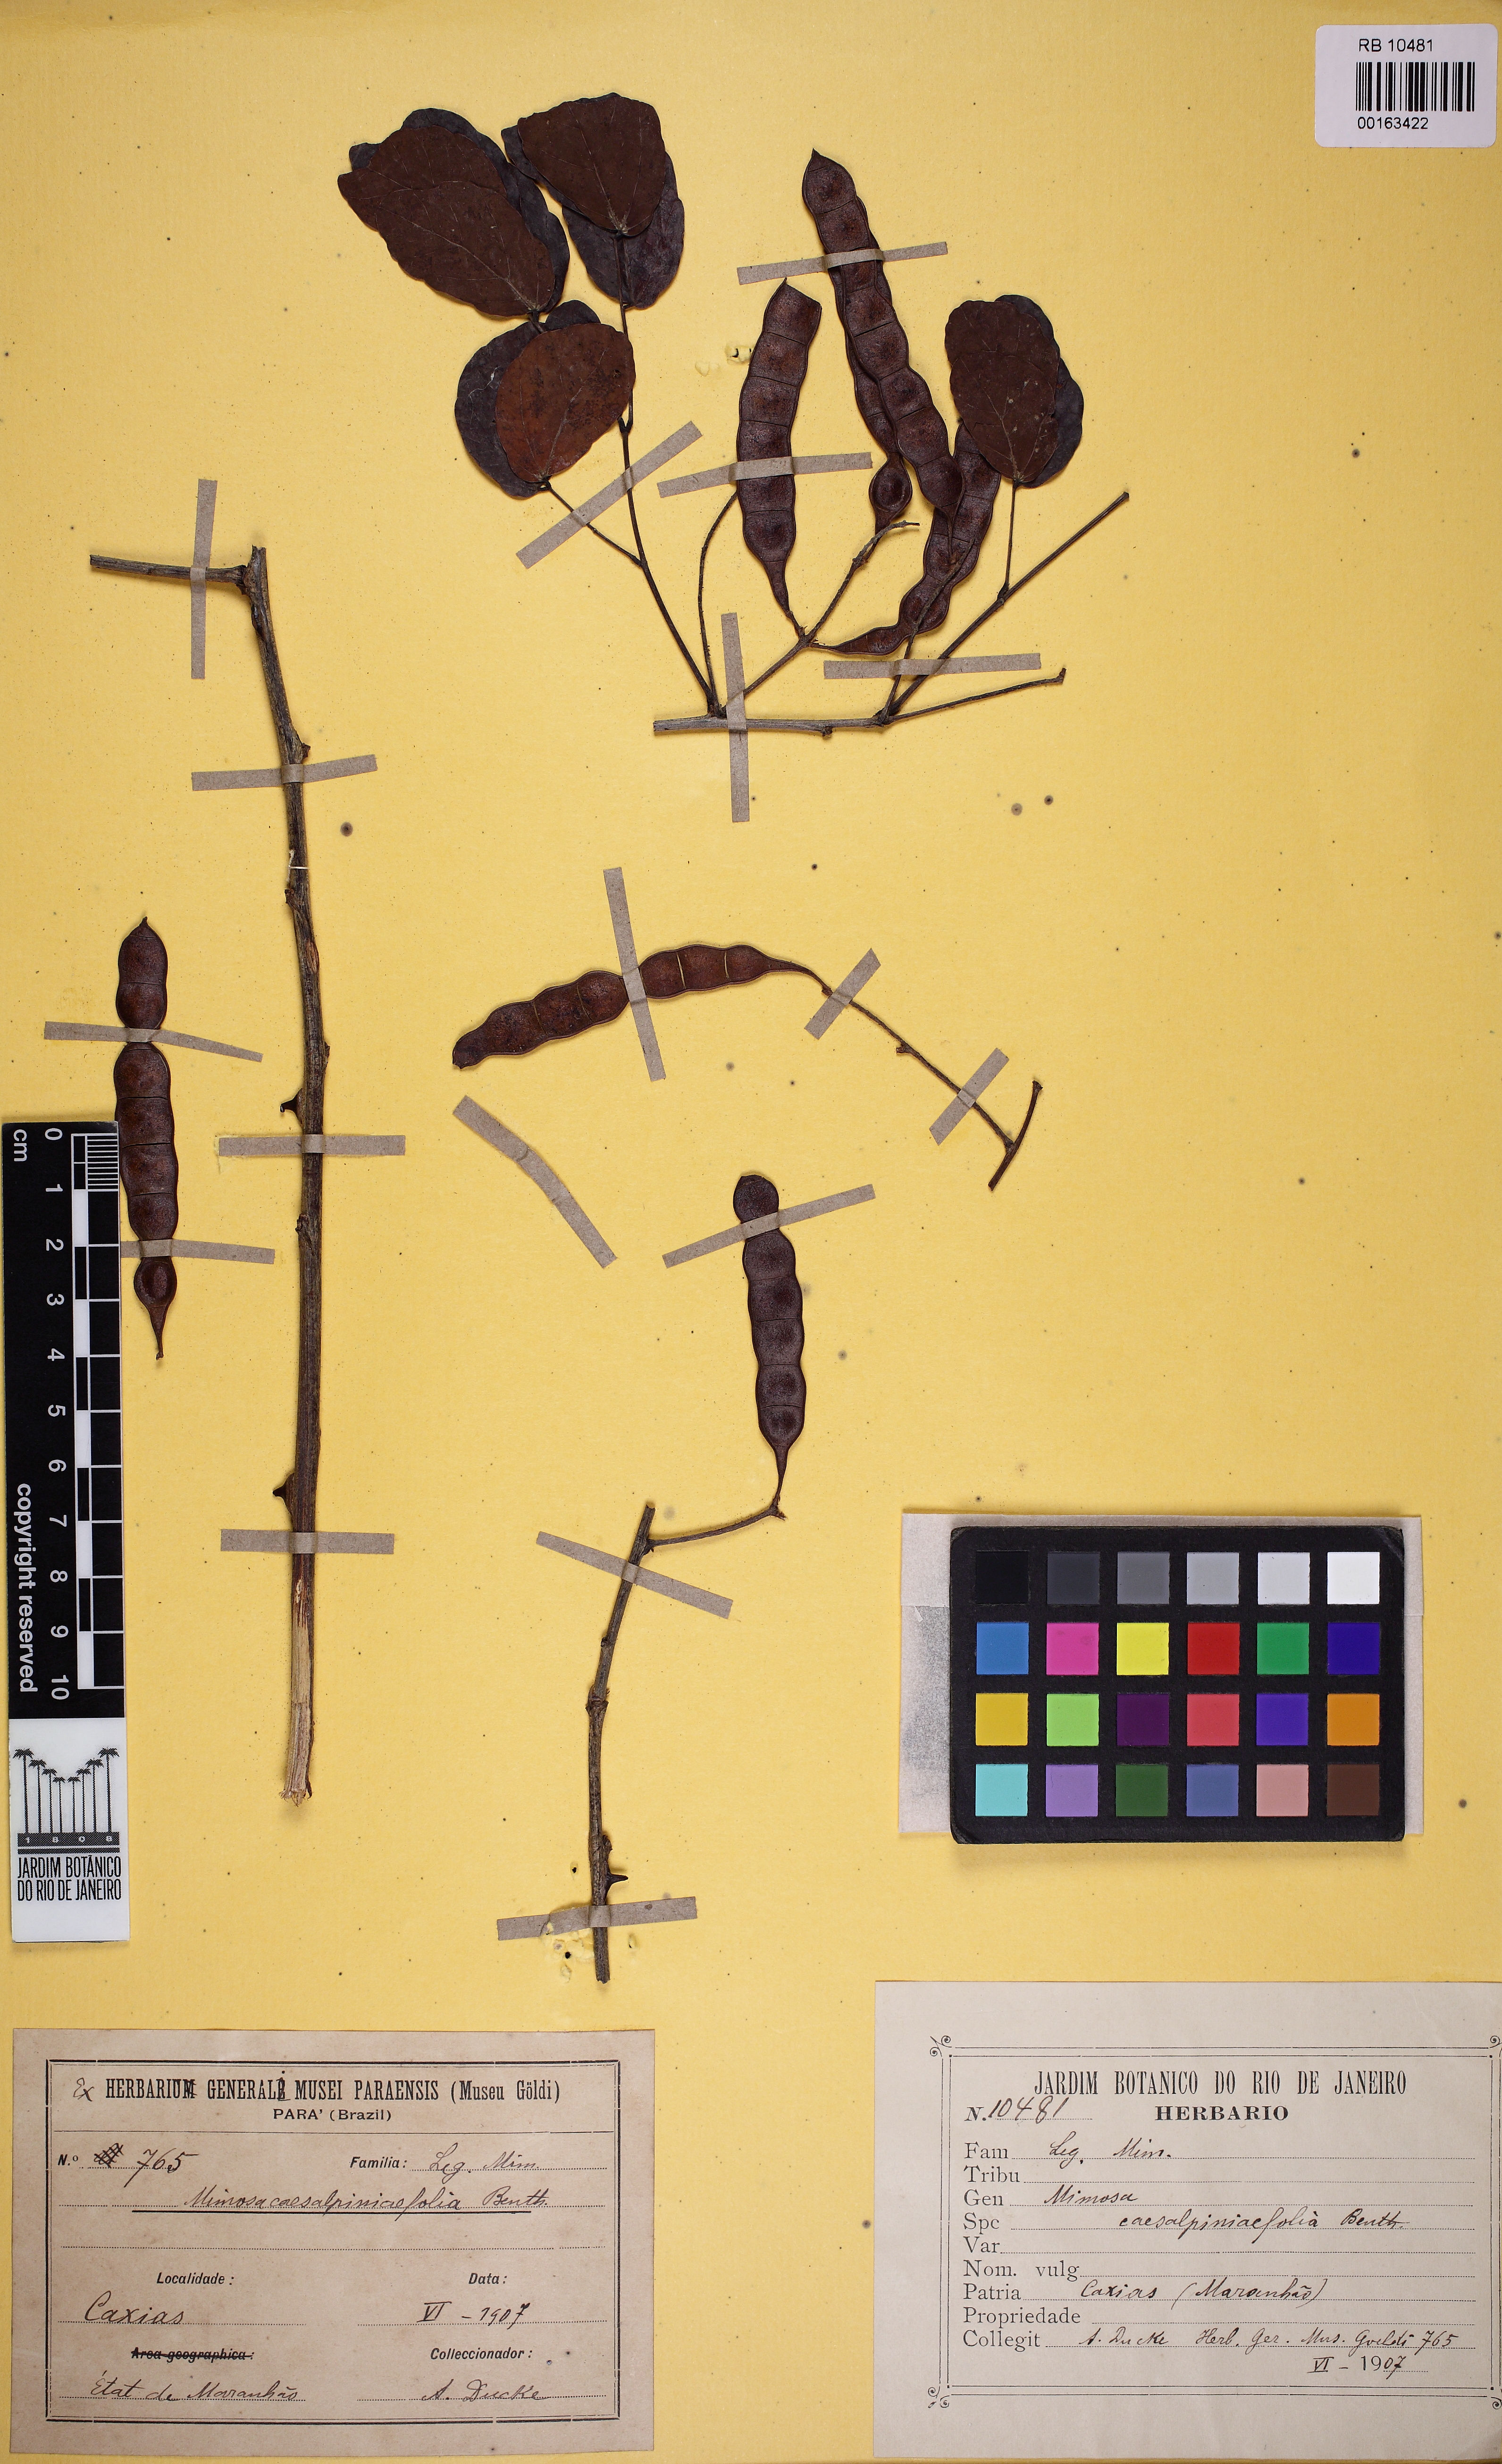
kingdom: Plantae
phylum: Tracheophyta
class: Magnoliopsida
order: Fabales
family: Fabaceae
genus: Mimosa
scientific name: Mimosa caesalpiniifolia
